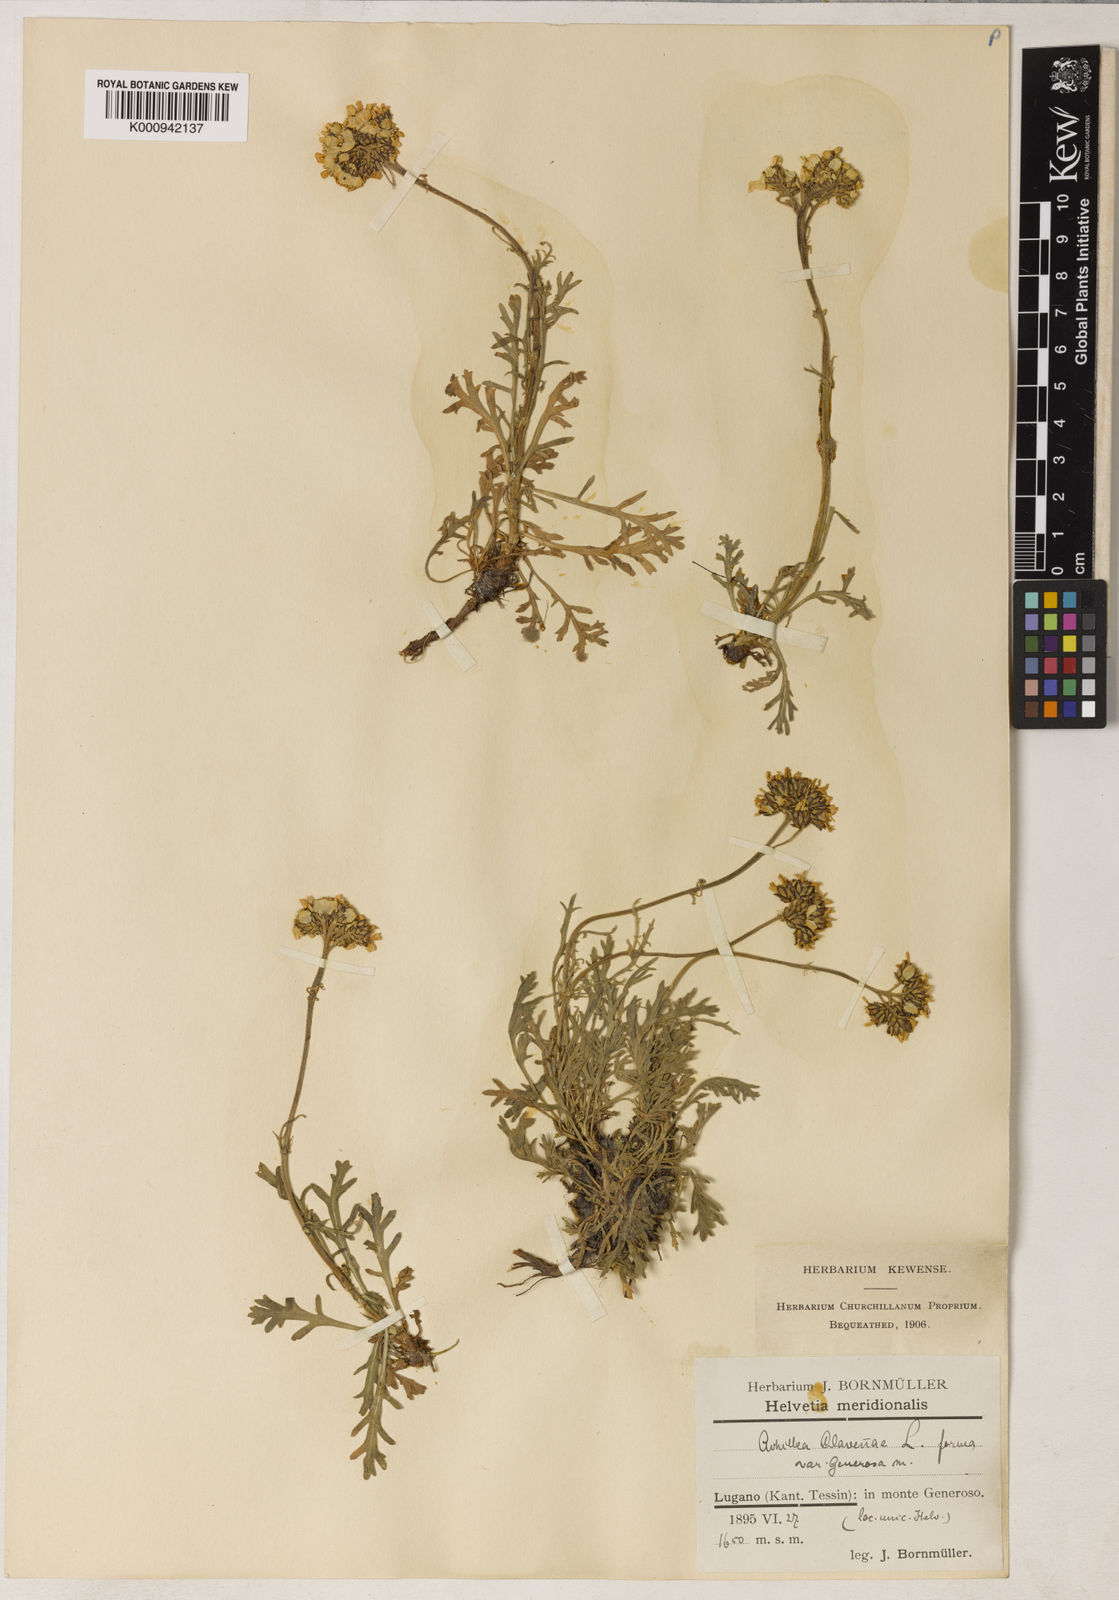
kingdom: Plantae
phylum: Tracheophyta
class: Magnoliopsida
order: Asterales
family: Asteraceae
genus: Achillea
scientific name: Achillea clavennae
